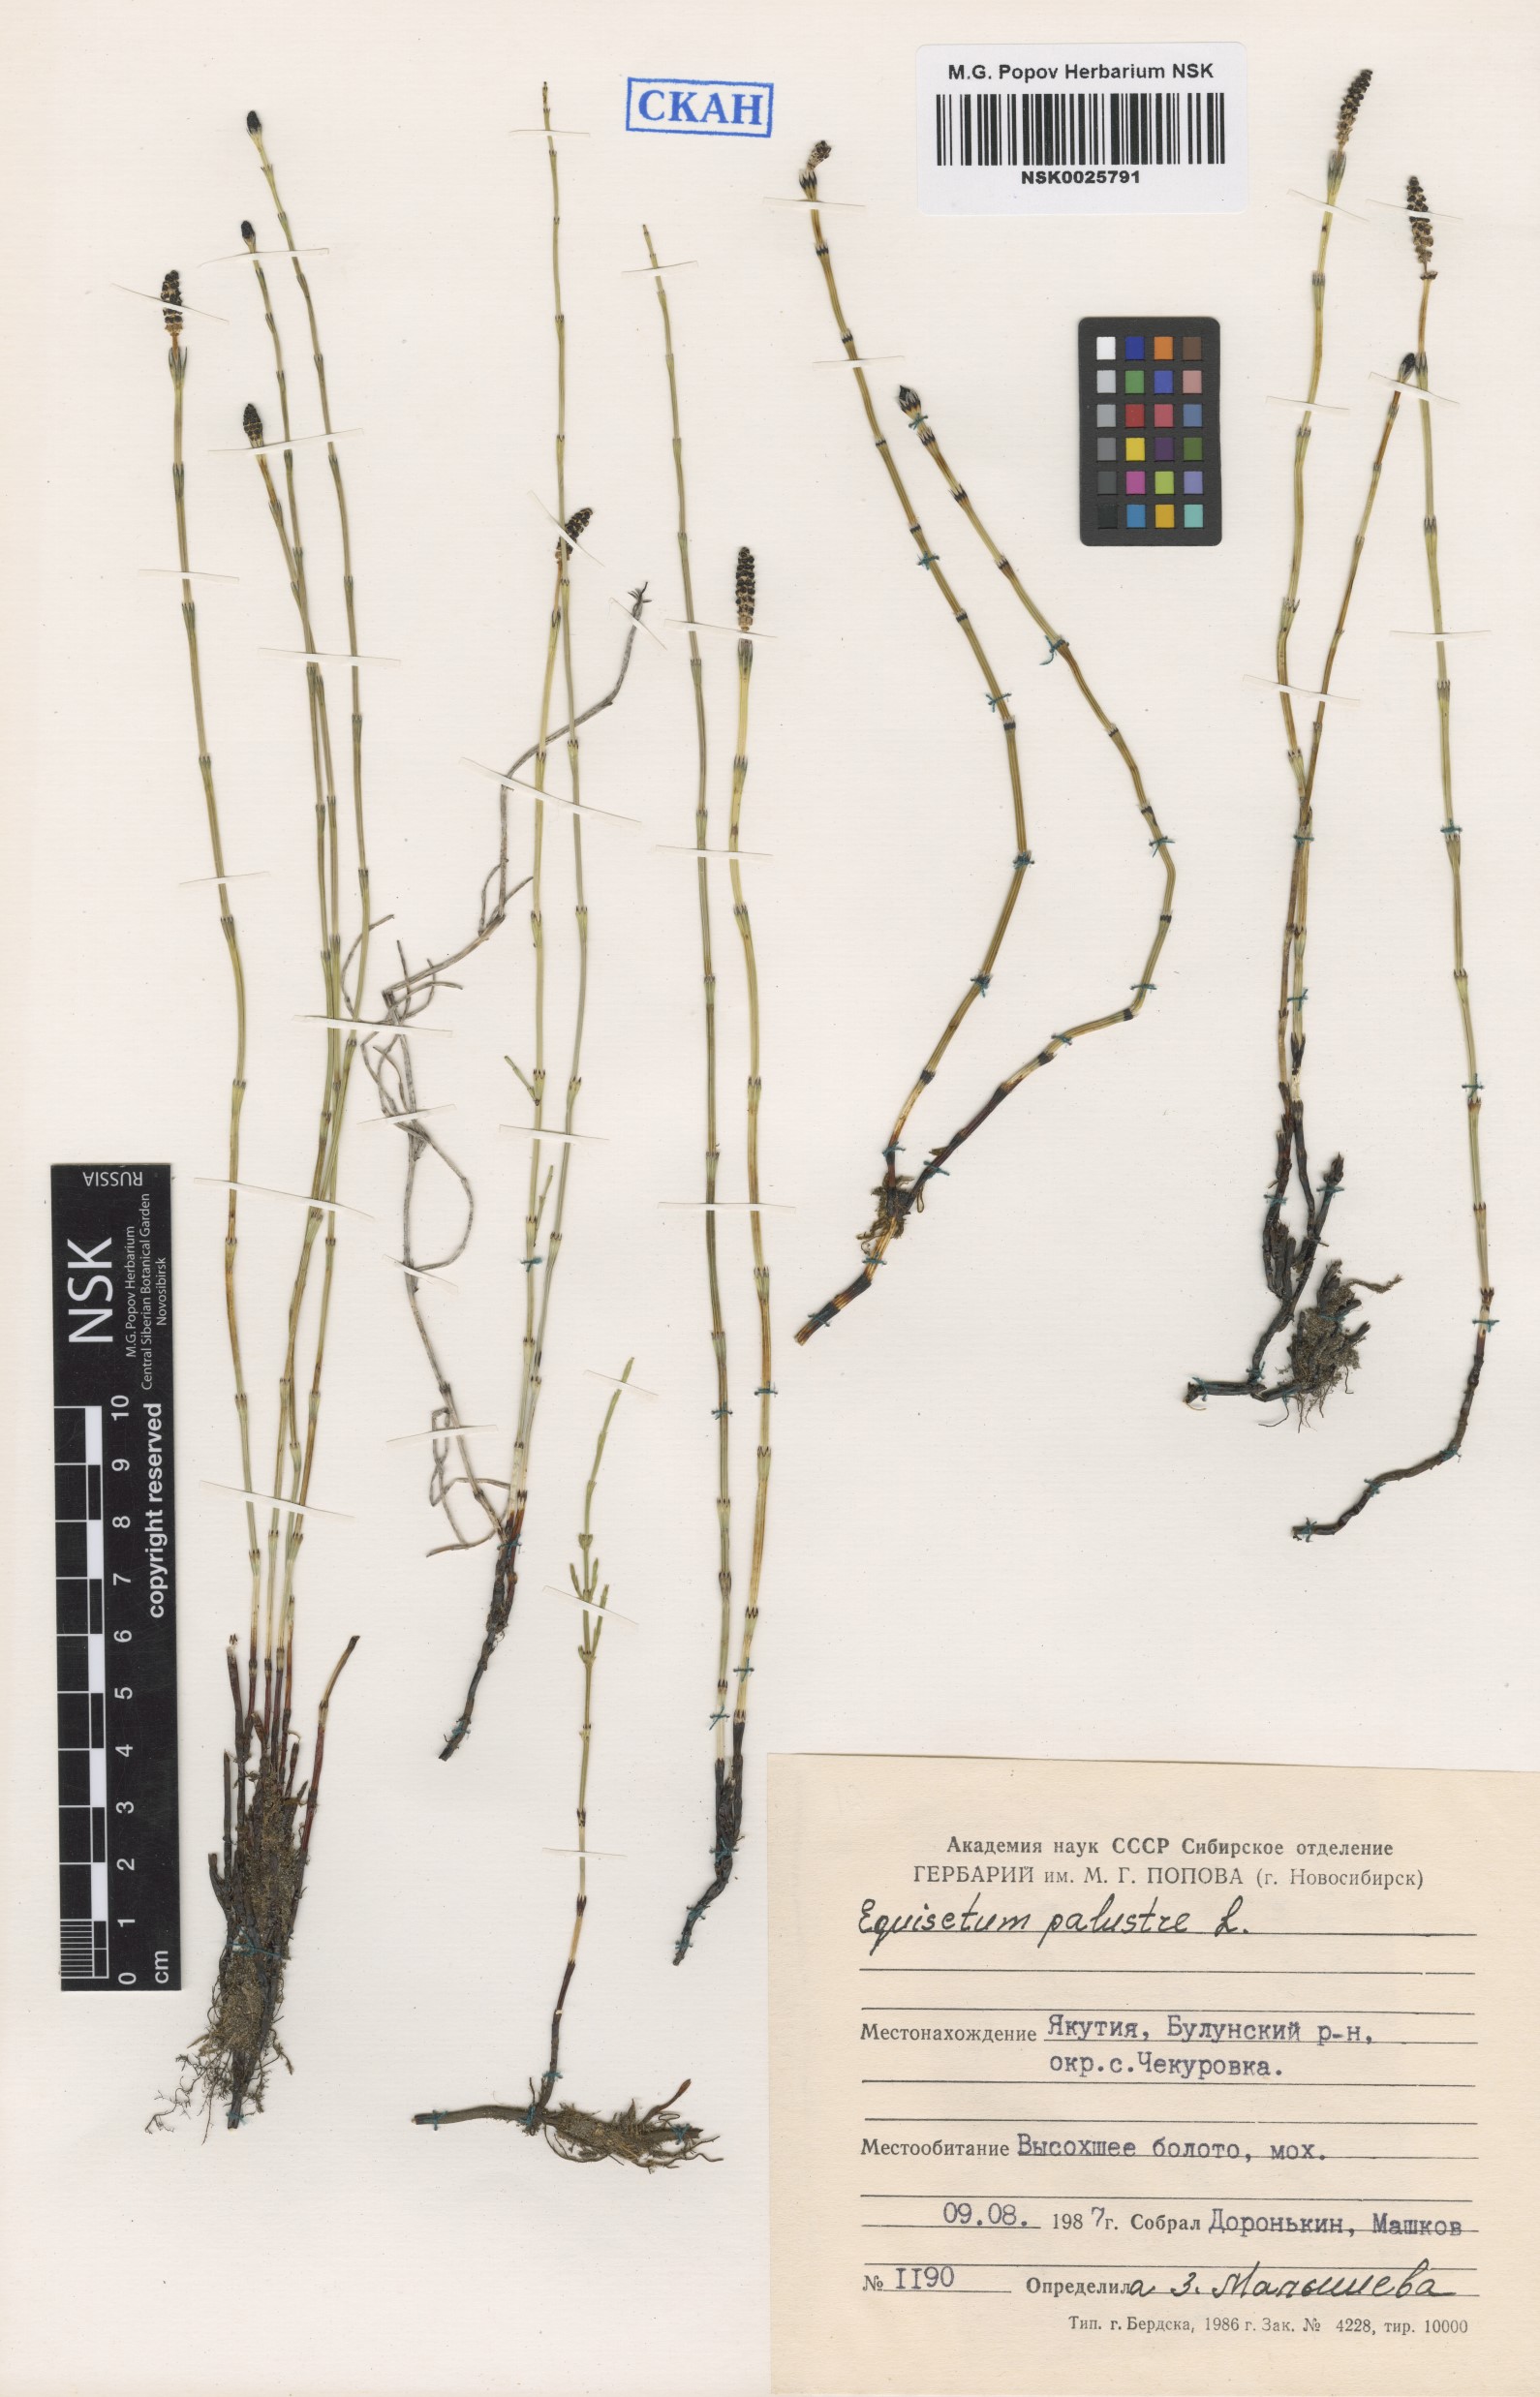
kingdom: Plantae
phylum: Tracheophyta
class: Polypodiopsida
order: Equisetales
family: Equisetaceae
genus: Equisetum
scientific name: Equisetum palustre
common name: Marsh horsetail
